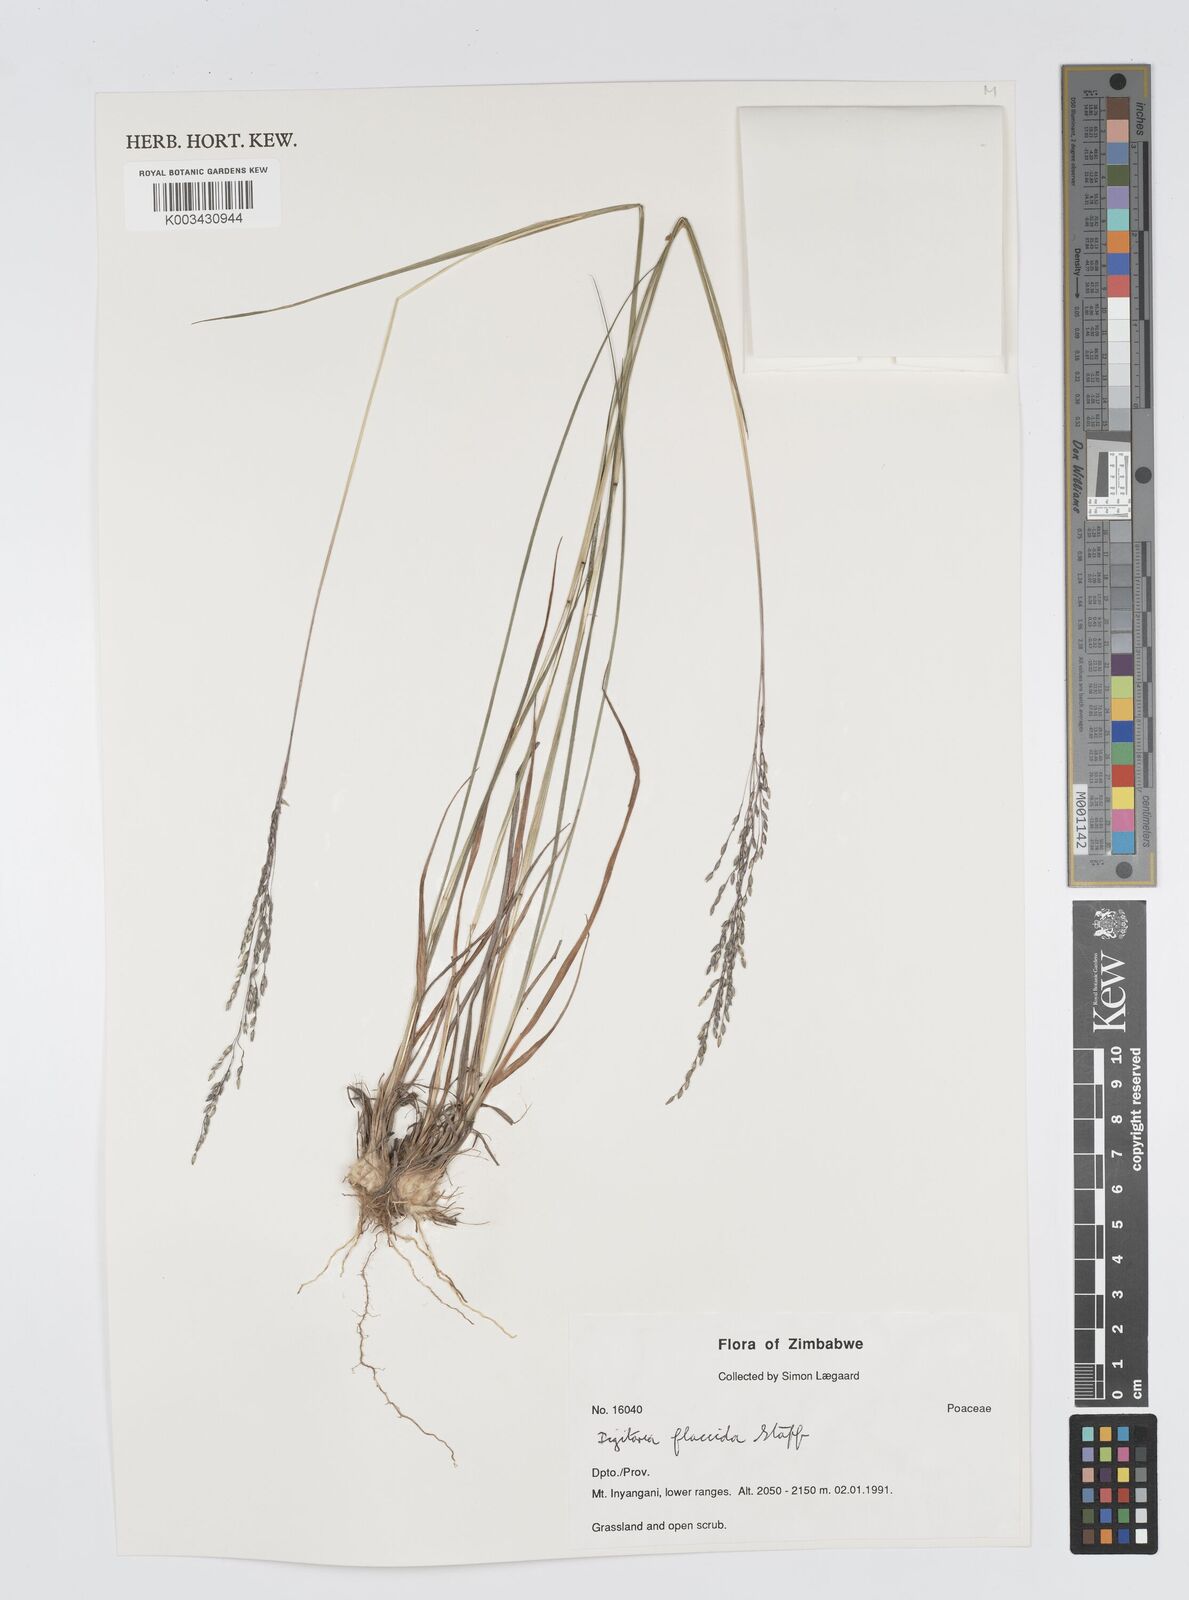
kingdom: Plantae
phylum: Tracheophyta
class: Liliopsida
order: Poales
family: Poaceae
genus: Digitaria
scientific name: Digitaria flaccida
